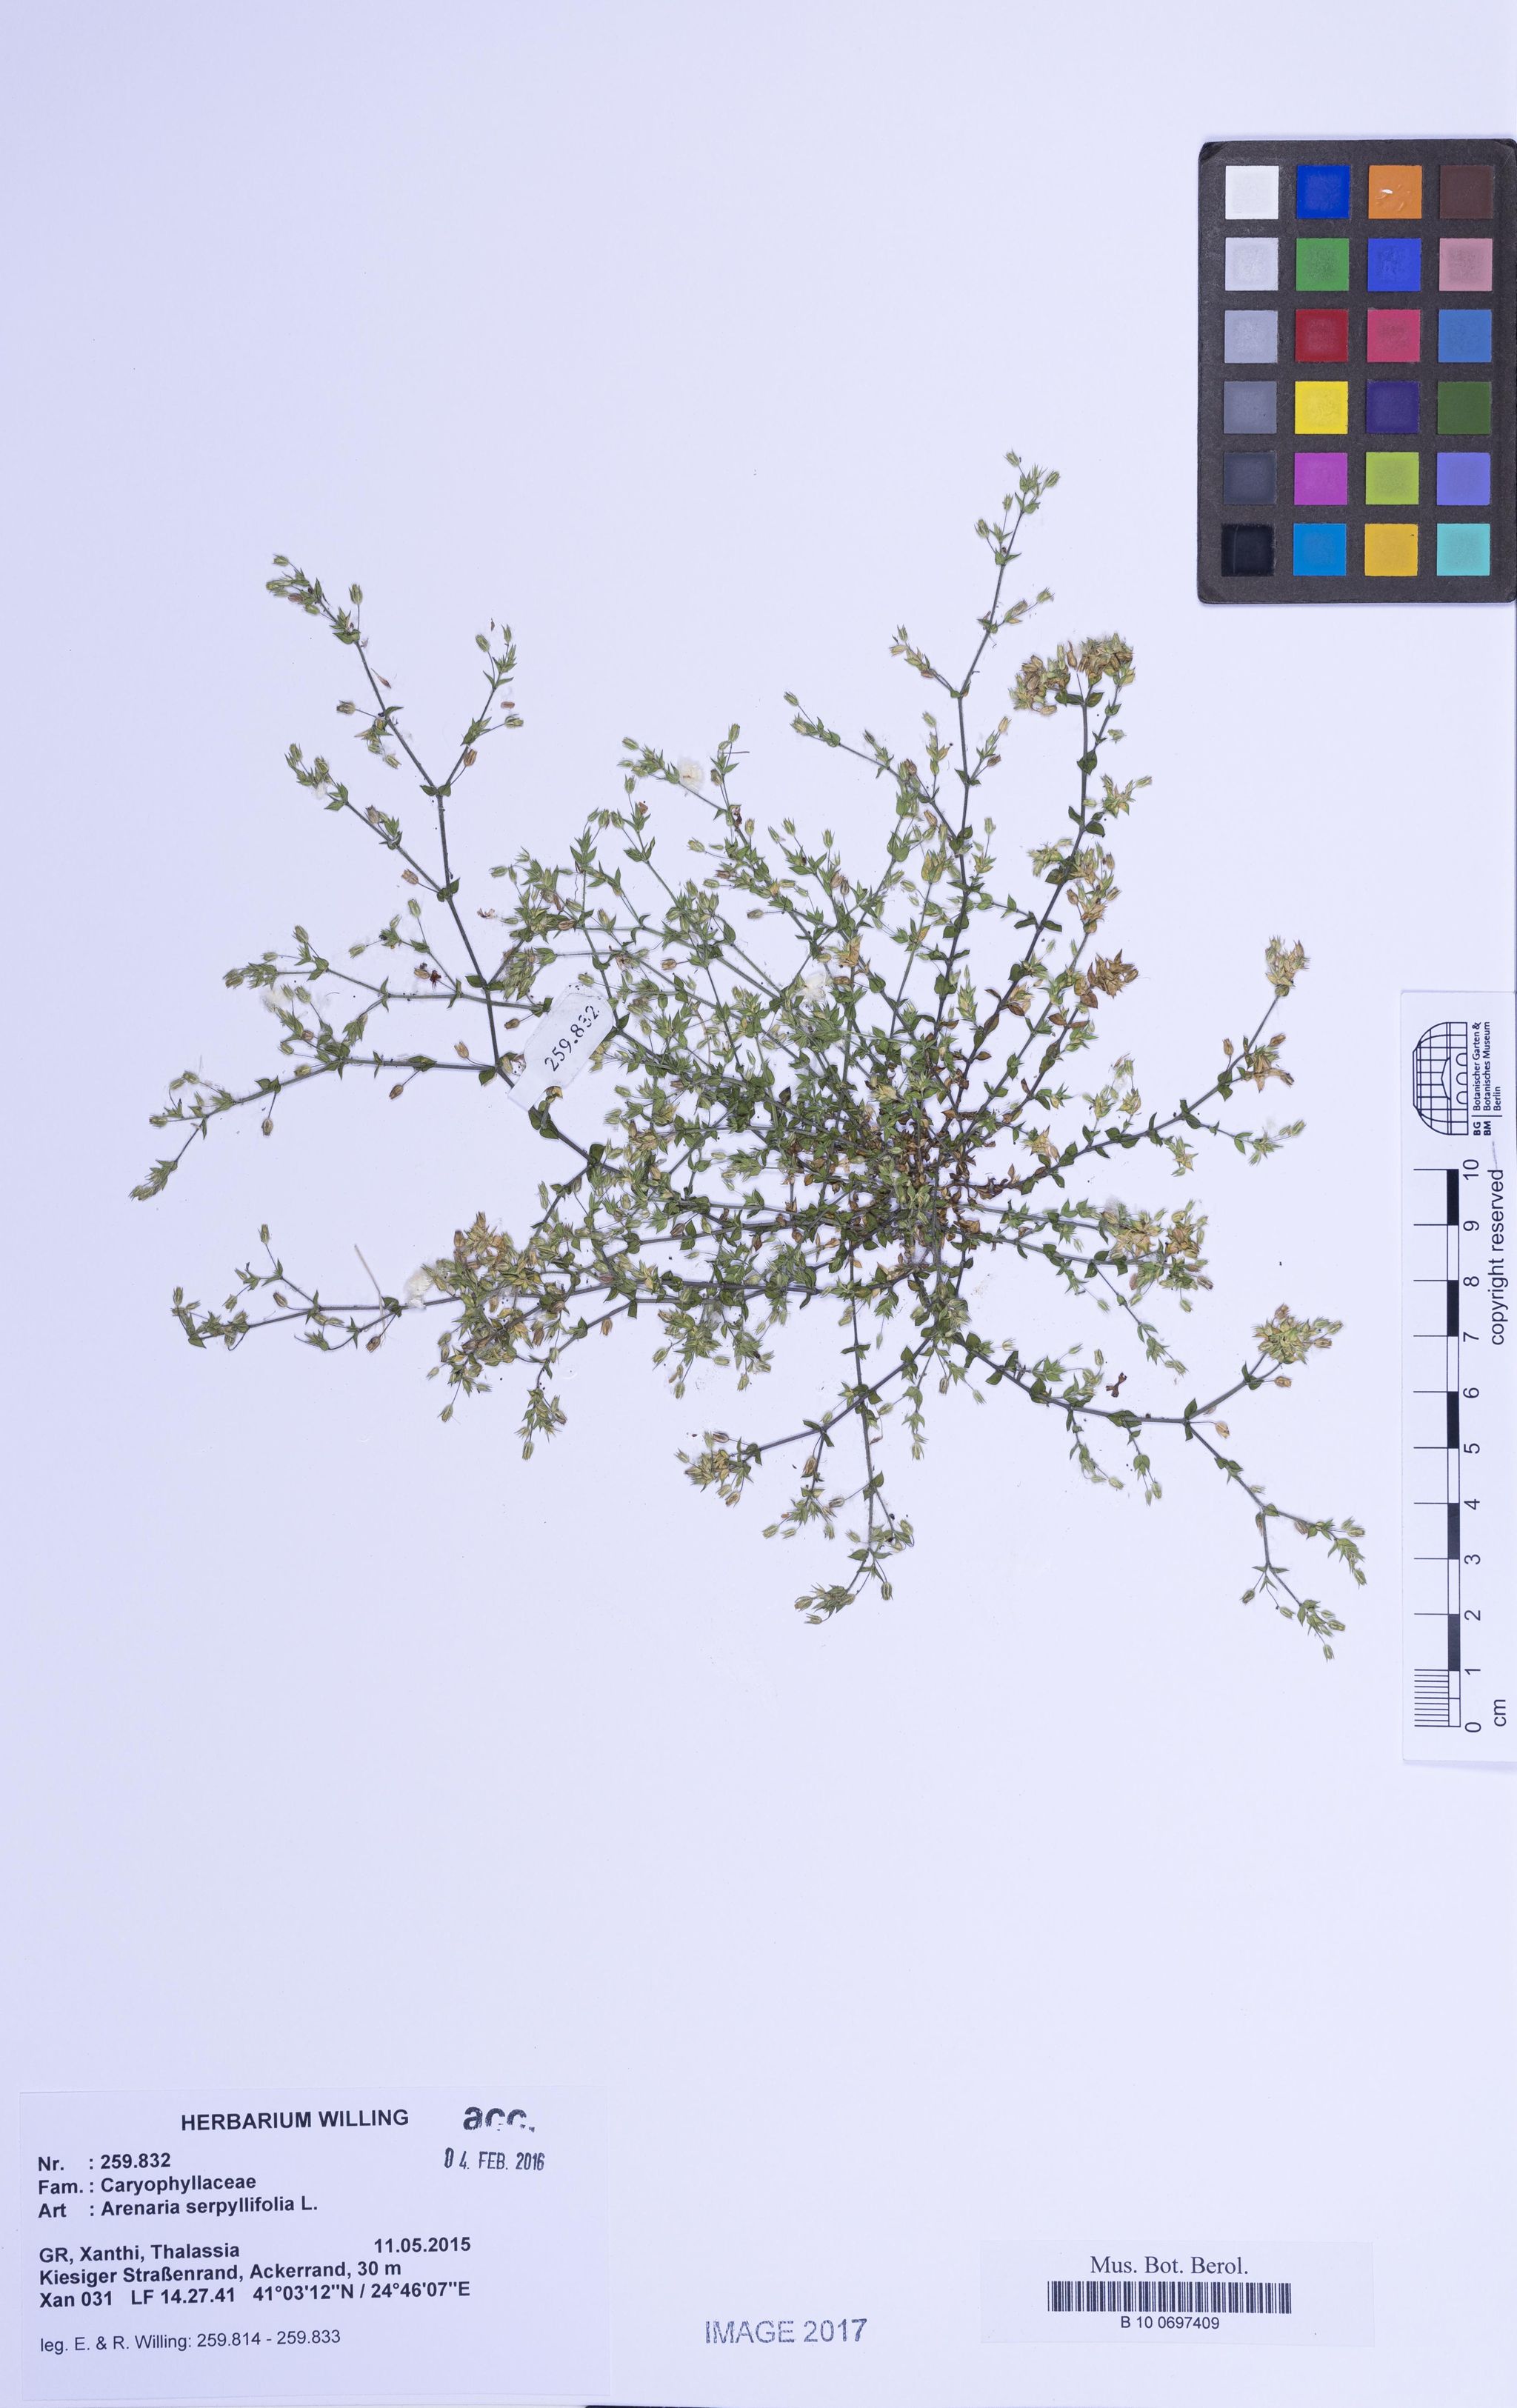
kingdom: Plantae
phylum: Tracheophyta
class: Magnoliopsida
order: Caryophyllales
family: Caryophyllaceae
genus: Arenaria
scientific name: Arenaria serpyllifolia
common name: Thyme-leaved sandwort
